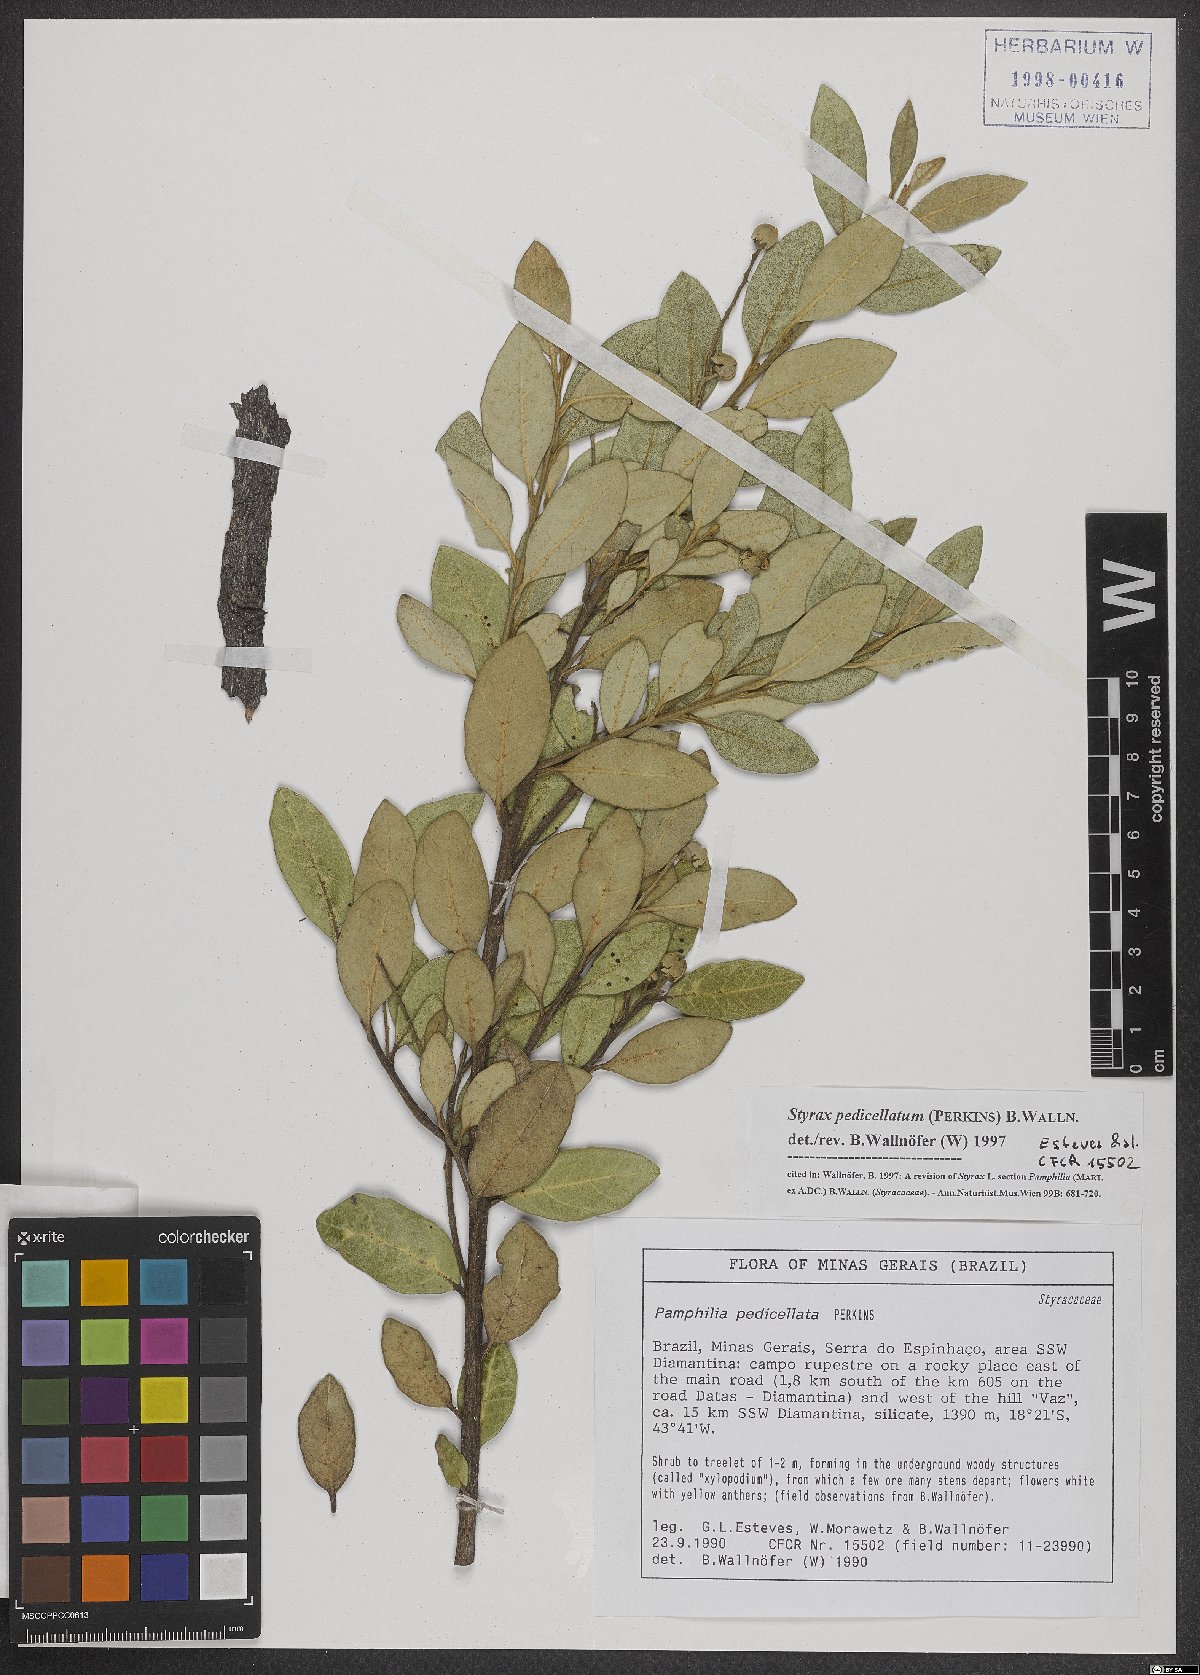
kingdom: Plantae
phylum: Tracheophyta
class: Magnoliopsida
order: Ericales
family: Styracaceae
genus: Styrax
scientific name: Styrax pedicellatus
